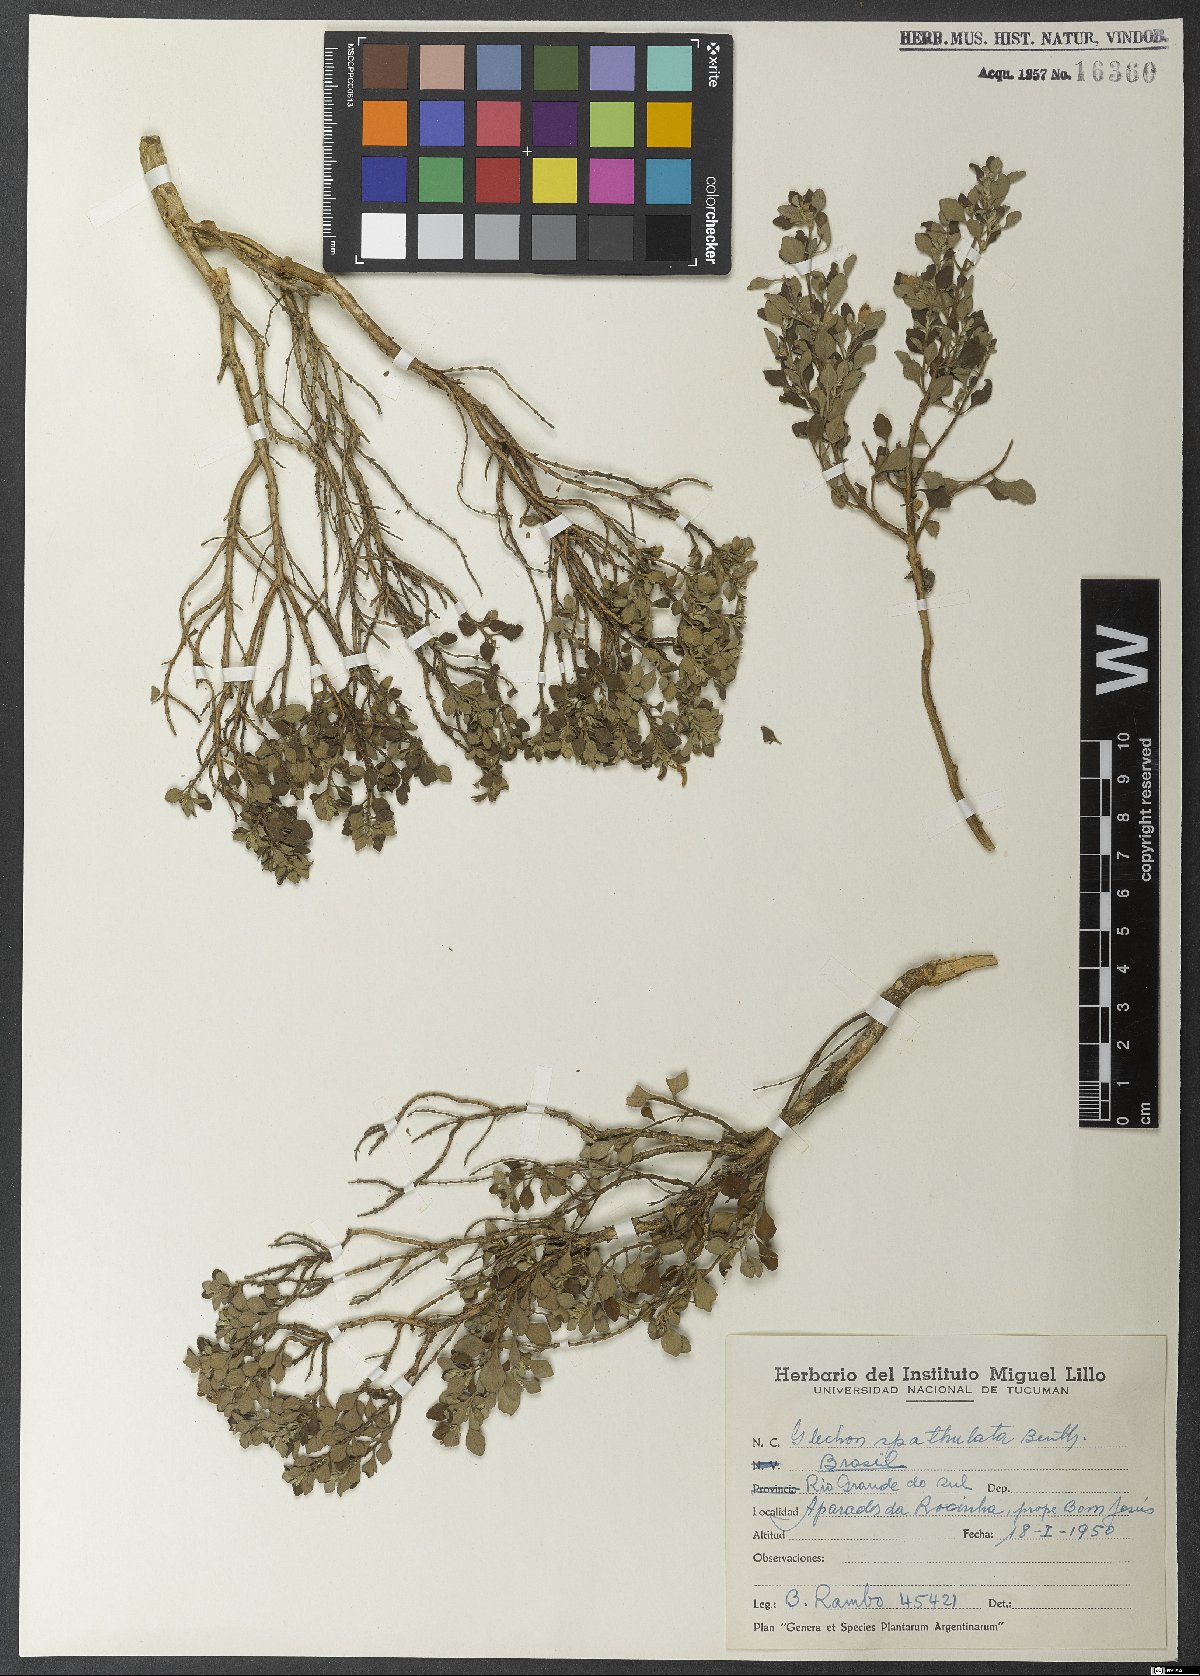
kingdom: Plantae
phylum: Tracheophyta
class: Magnoliopsida
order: Lamiales
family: Lamiaceae
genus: Glechon
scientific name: Glechon thymoides
